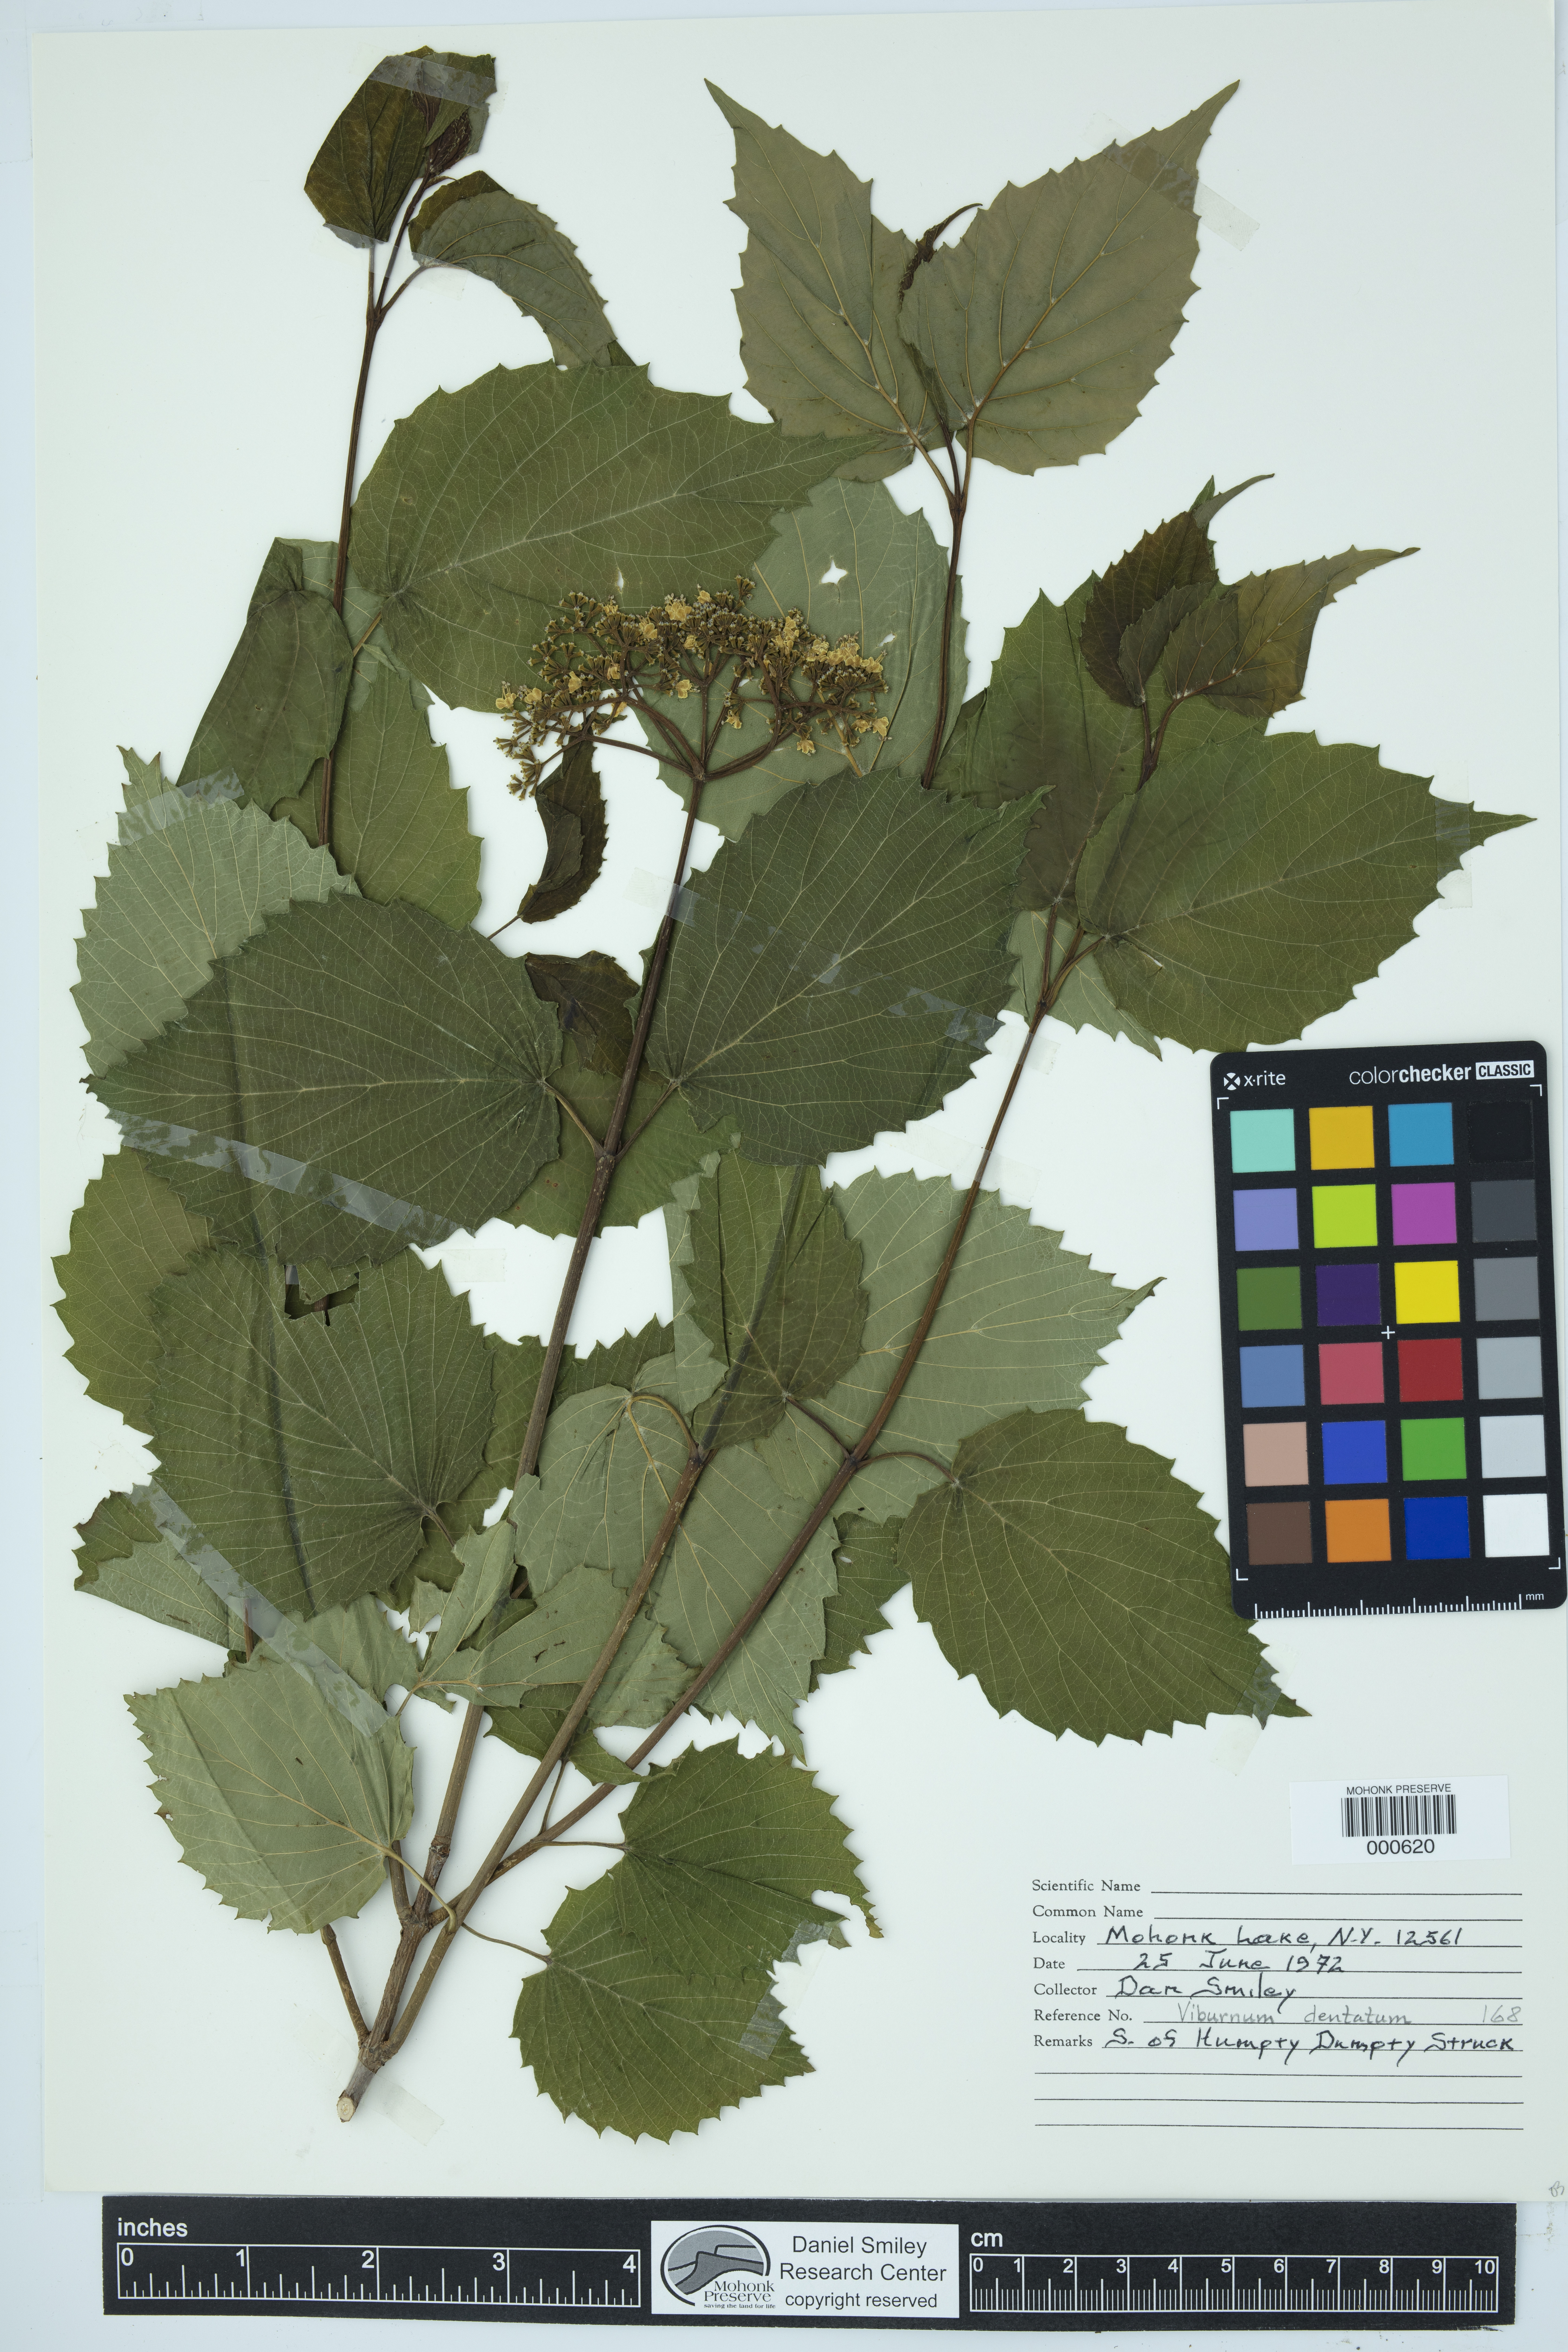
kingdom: Plantae
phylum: Tracheophyta
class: Magnoliopsida
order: Dipsacales
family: Viburnaceae
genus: Viburnum
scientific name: Viburnum dentatum
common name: Arrow-wood
